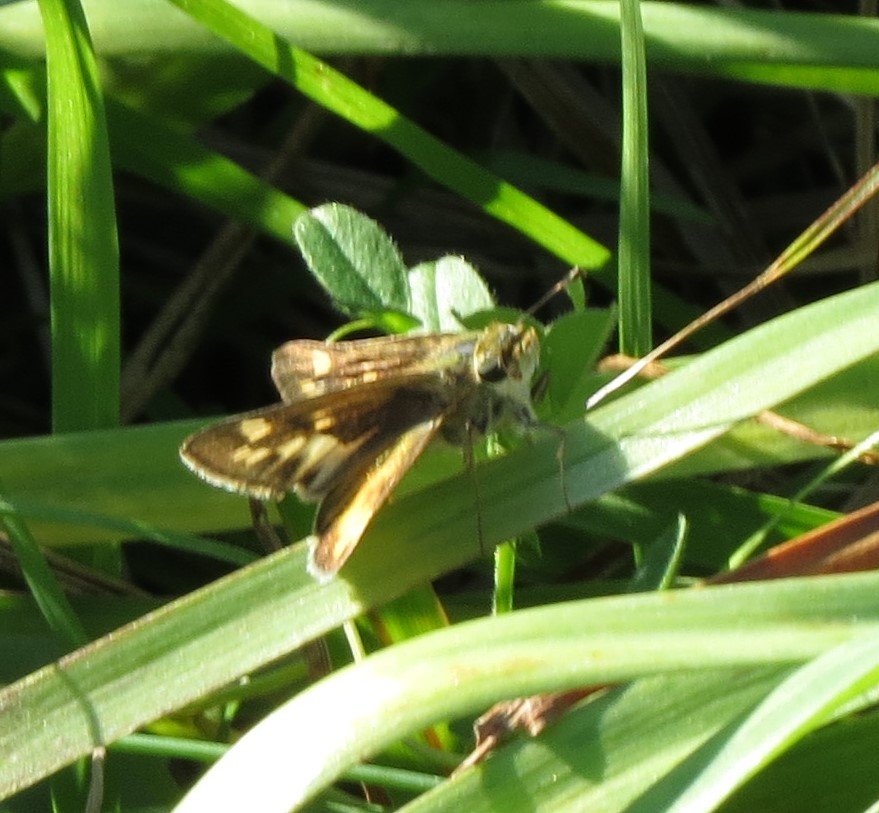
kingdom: Animalia
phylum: Arthropoda
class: Insecta
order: Lepidoptera
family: Hesperiidae
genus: Hylephila
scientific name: Hylephila phyleus
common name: Fiery Skipper
